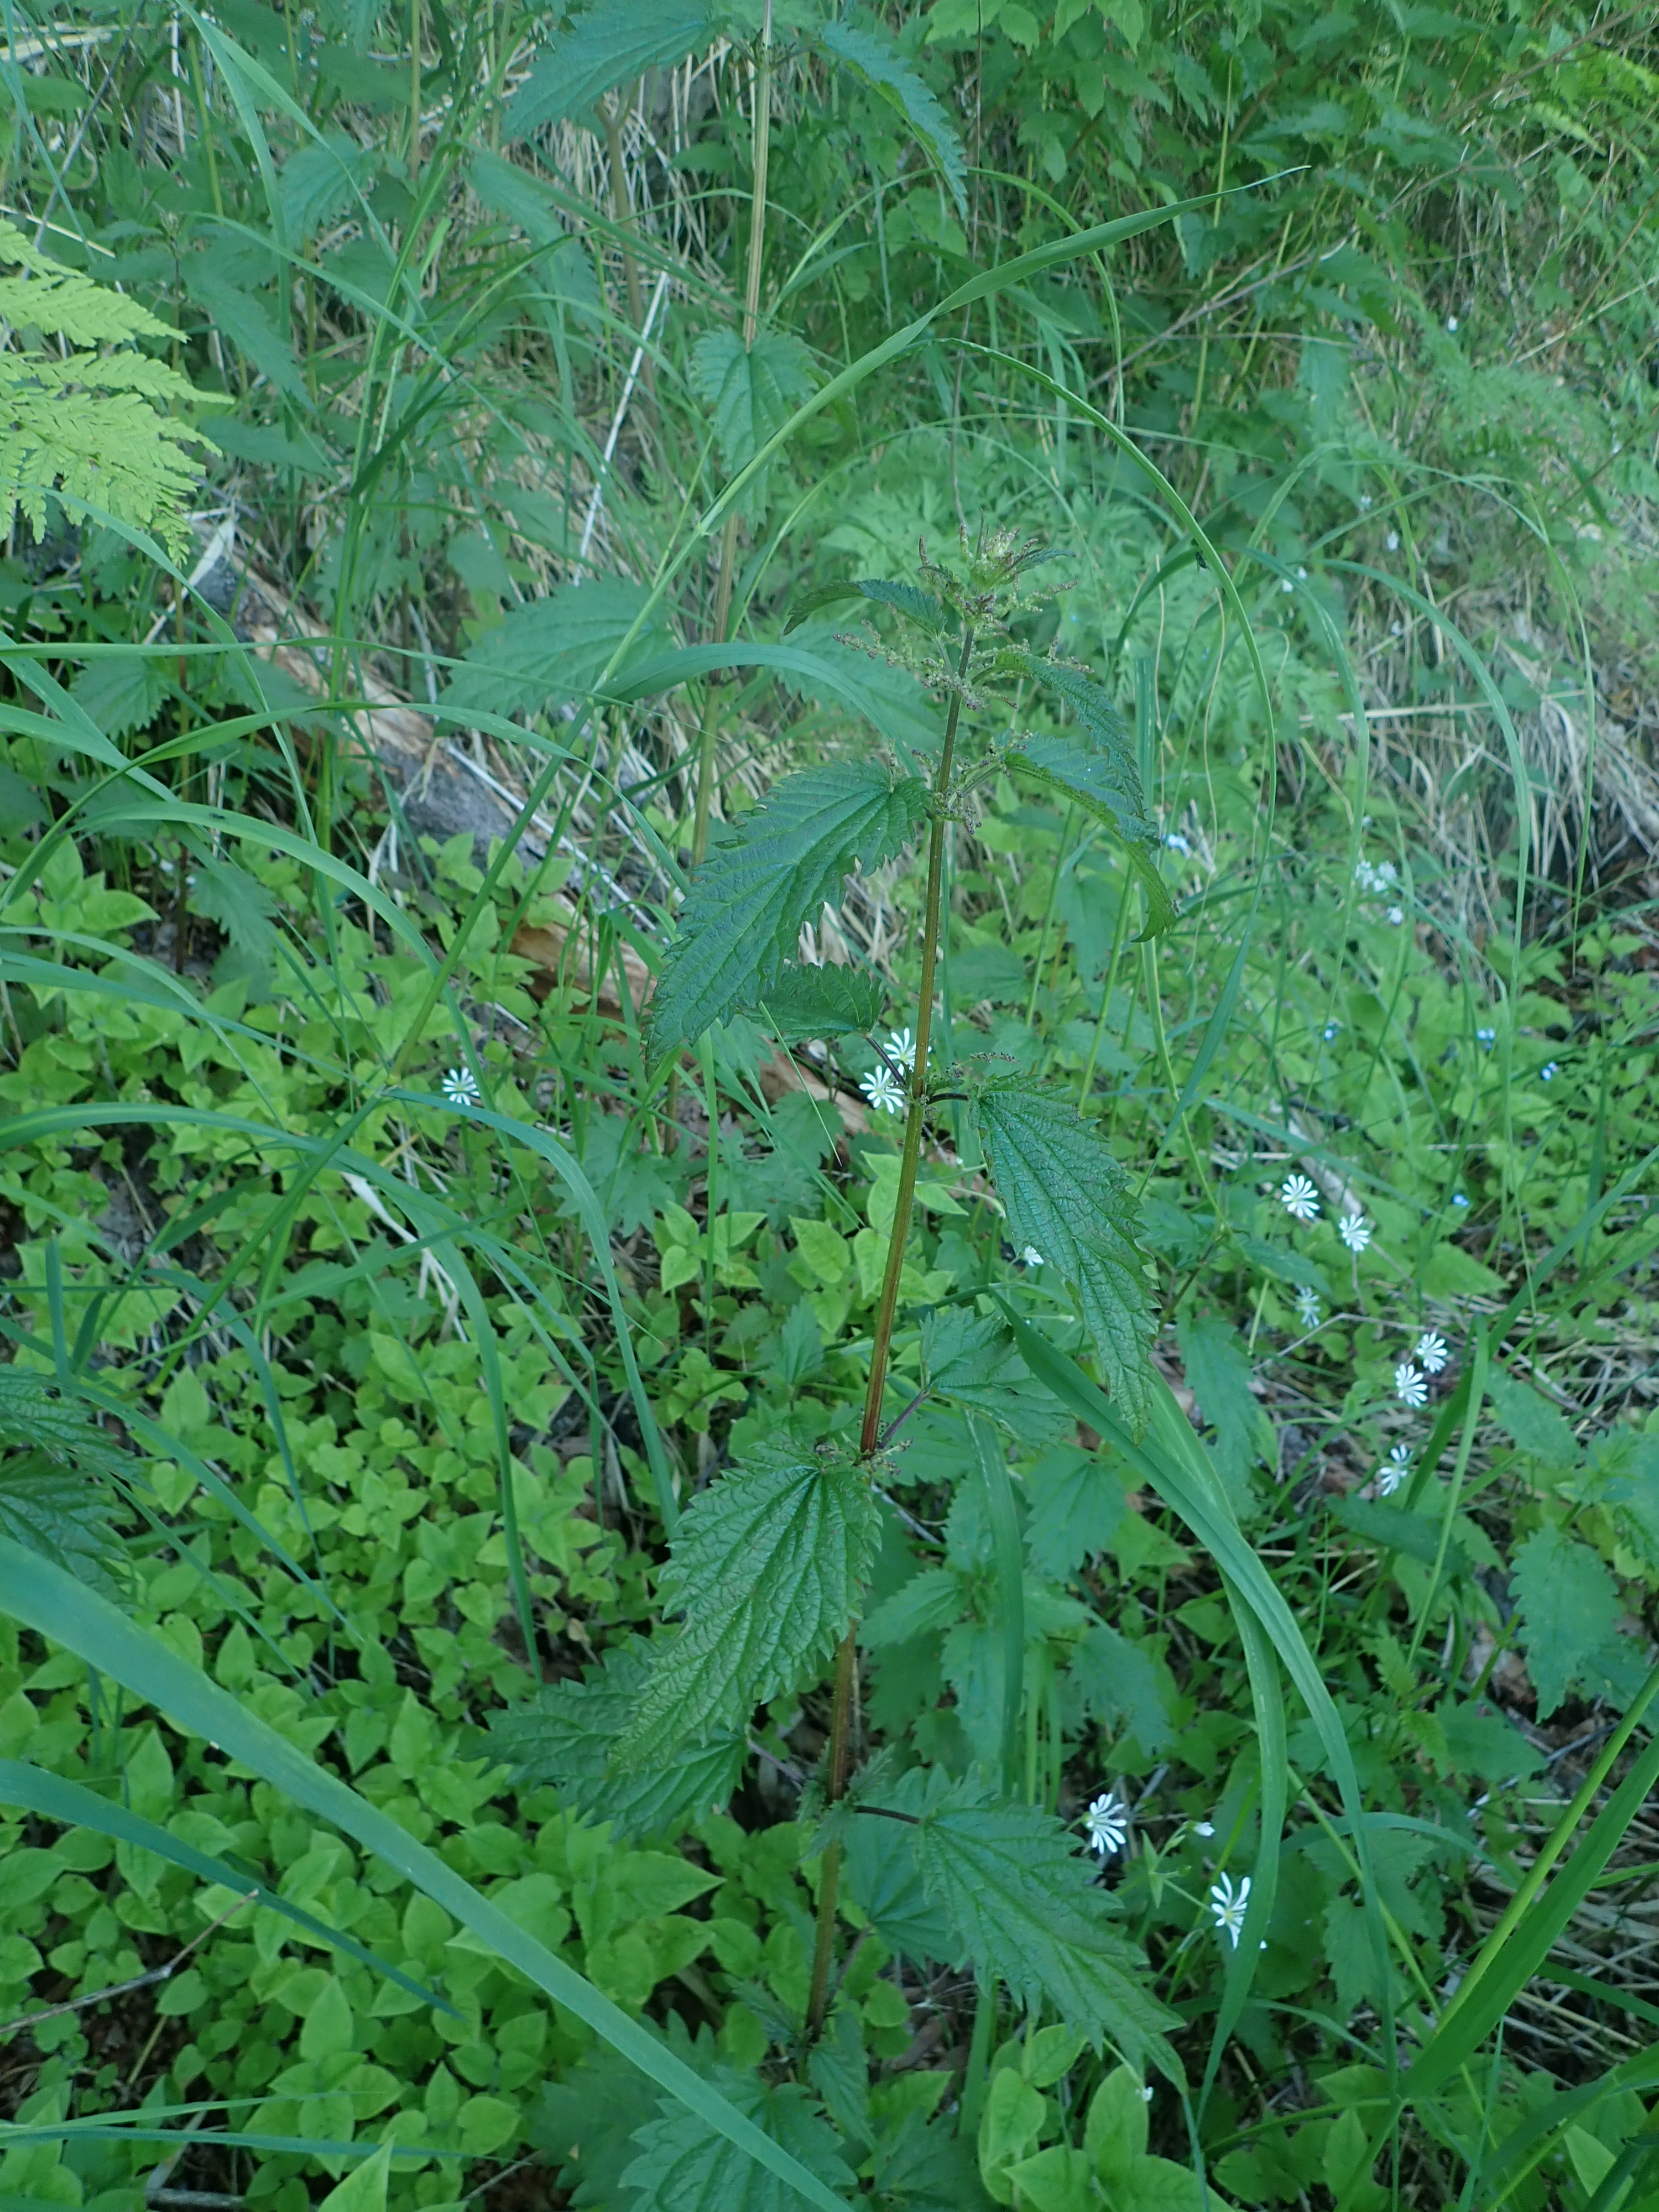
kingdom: Plantae
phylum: Tracheophyta
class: Magnoliopsida
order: Rosales
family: Urticaceae
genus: Urtica
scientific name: Urtica dioica
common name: Common nettle
